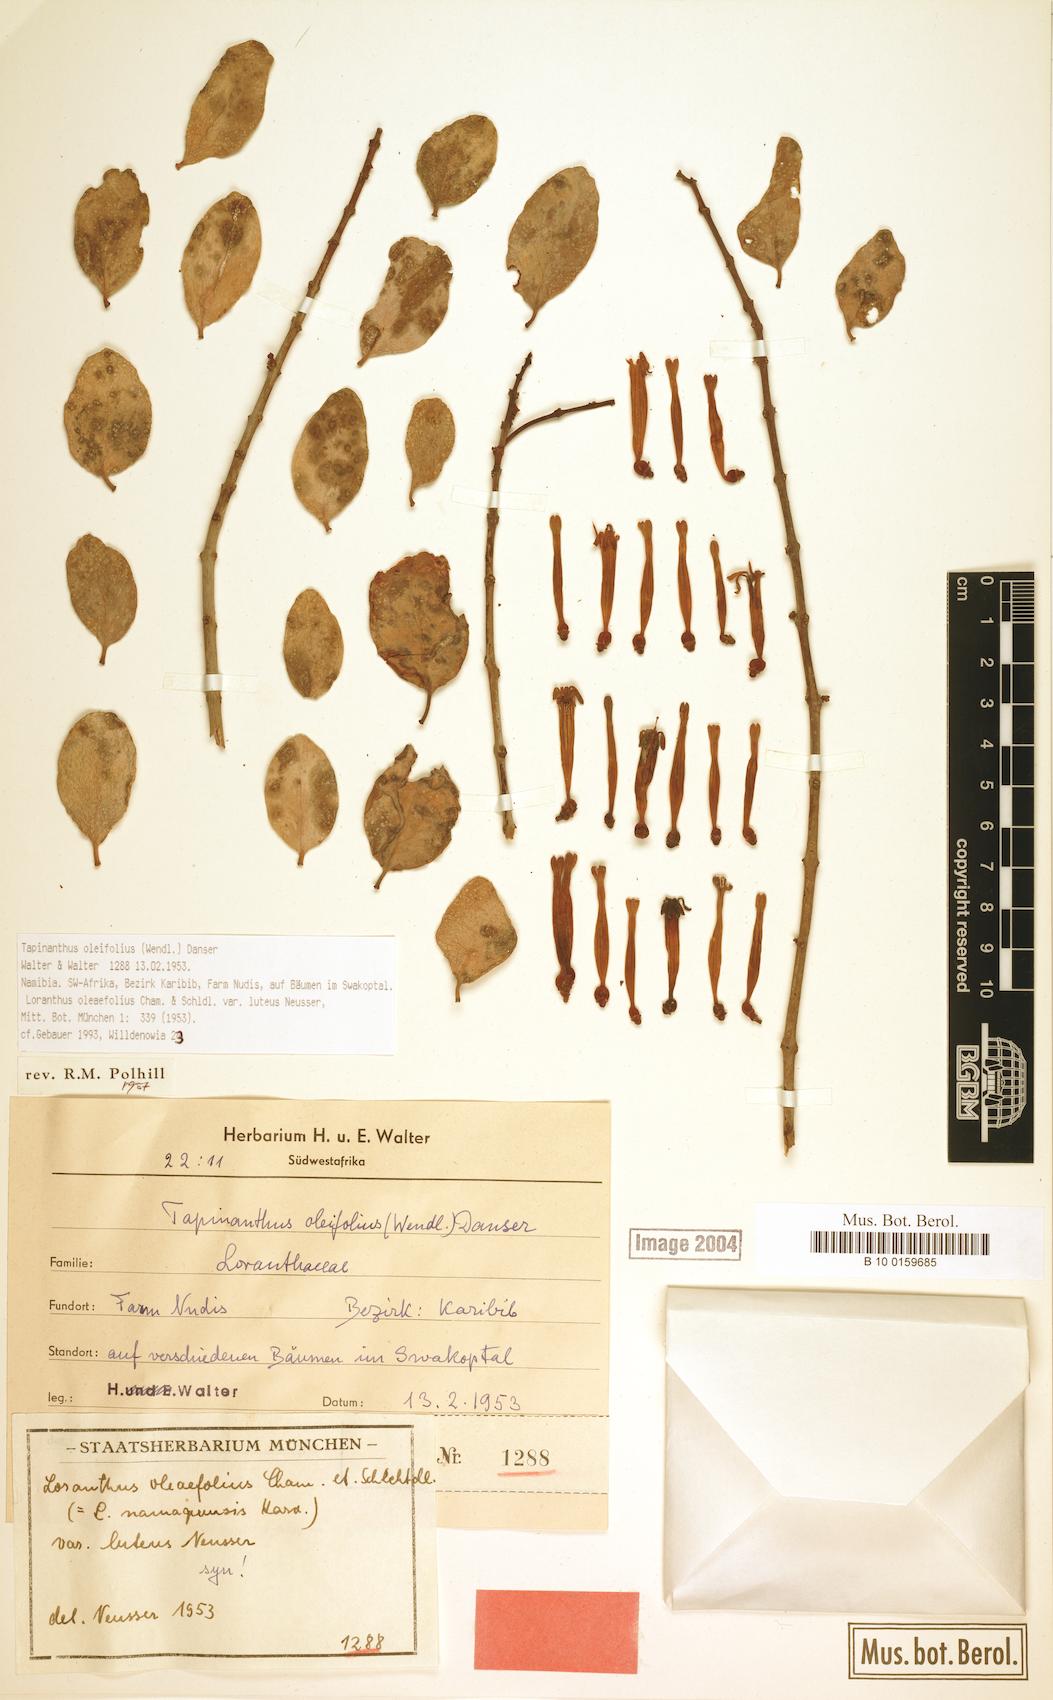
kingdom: Plantae
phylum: Tracheophyta
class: Magnoliopsida
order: Santalales
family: Loranthaceae
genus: Tapinanthus
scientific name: Tapinanthus oleifolius
